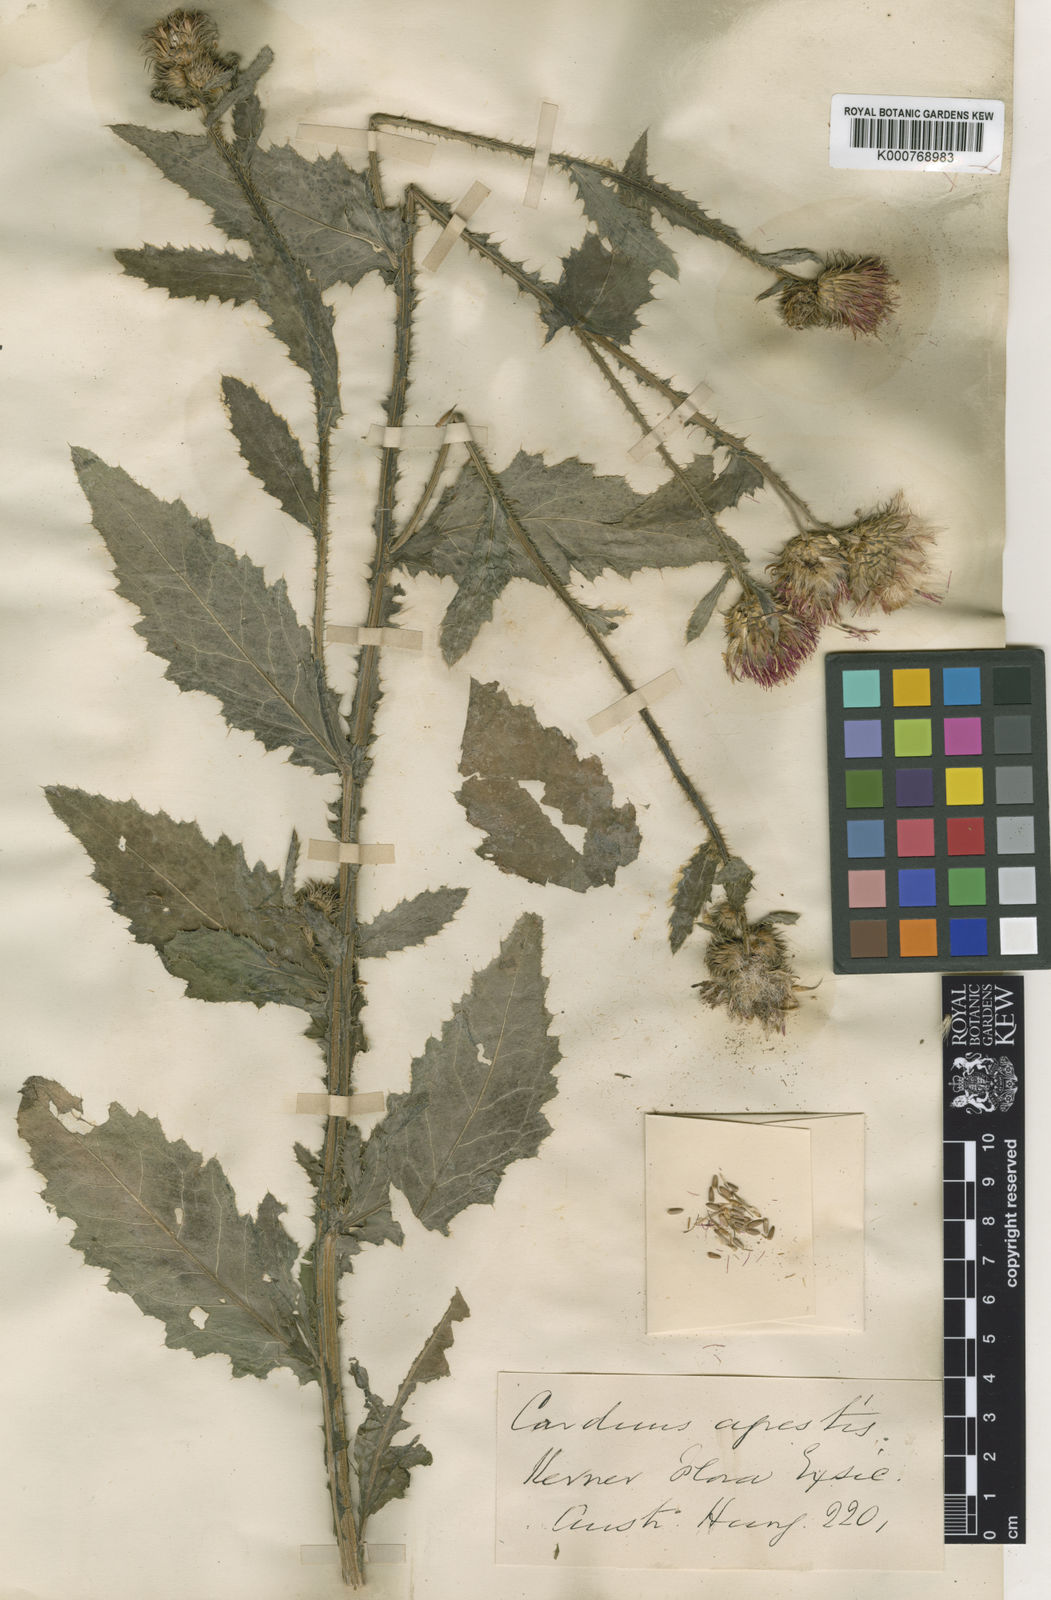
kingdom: Plantae
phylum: Tracheophyta
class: Magnoliopsida
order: Asterales
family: Asteraceae
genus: Carduus
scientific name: Carduus crispus
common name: Welted thistle
